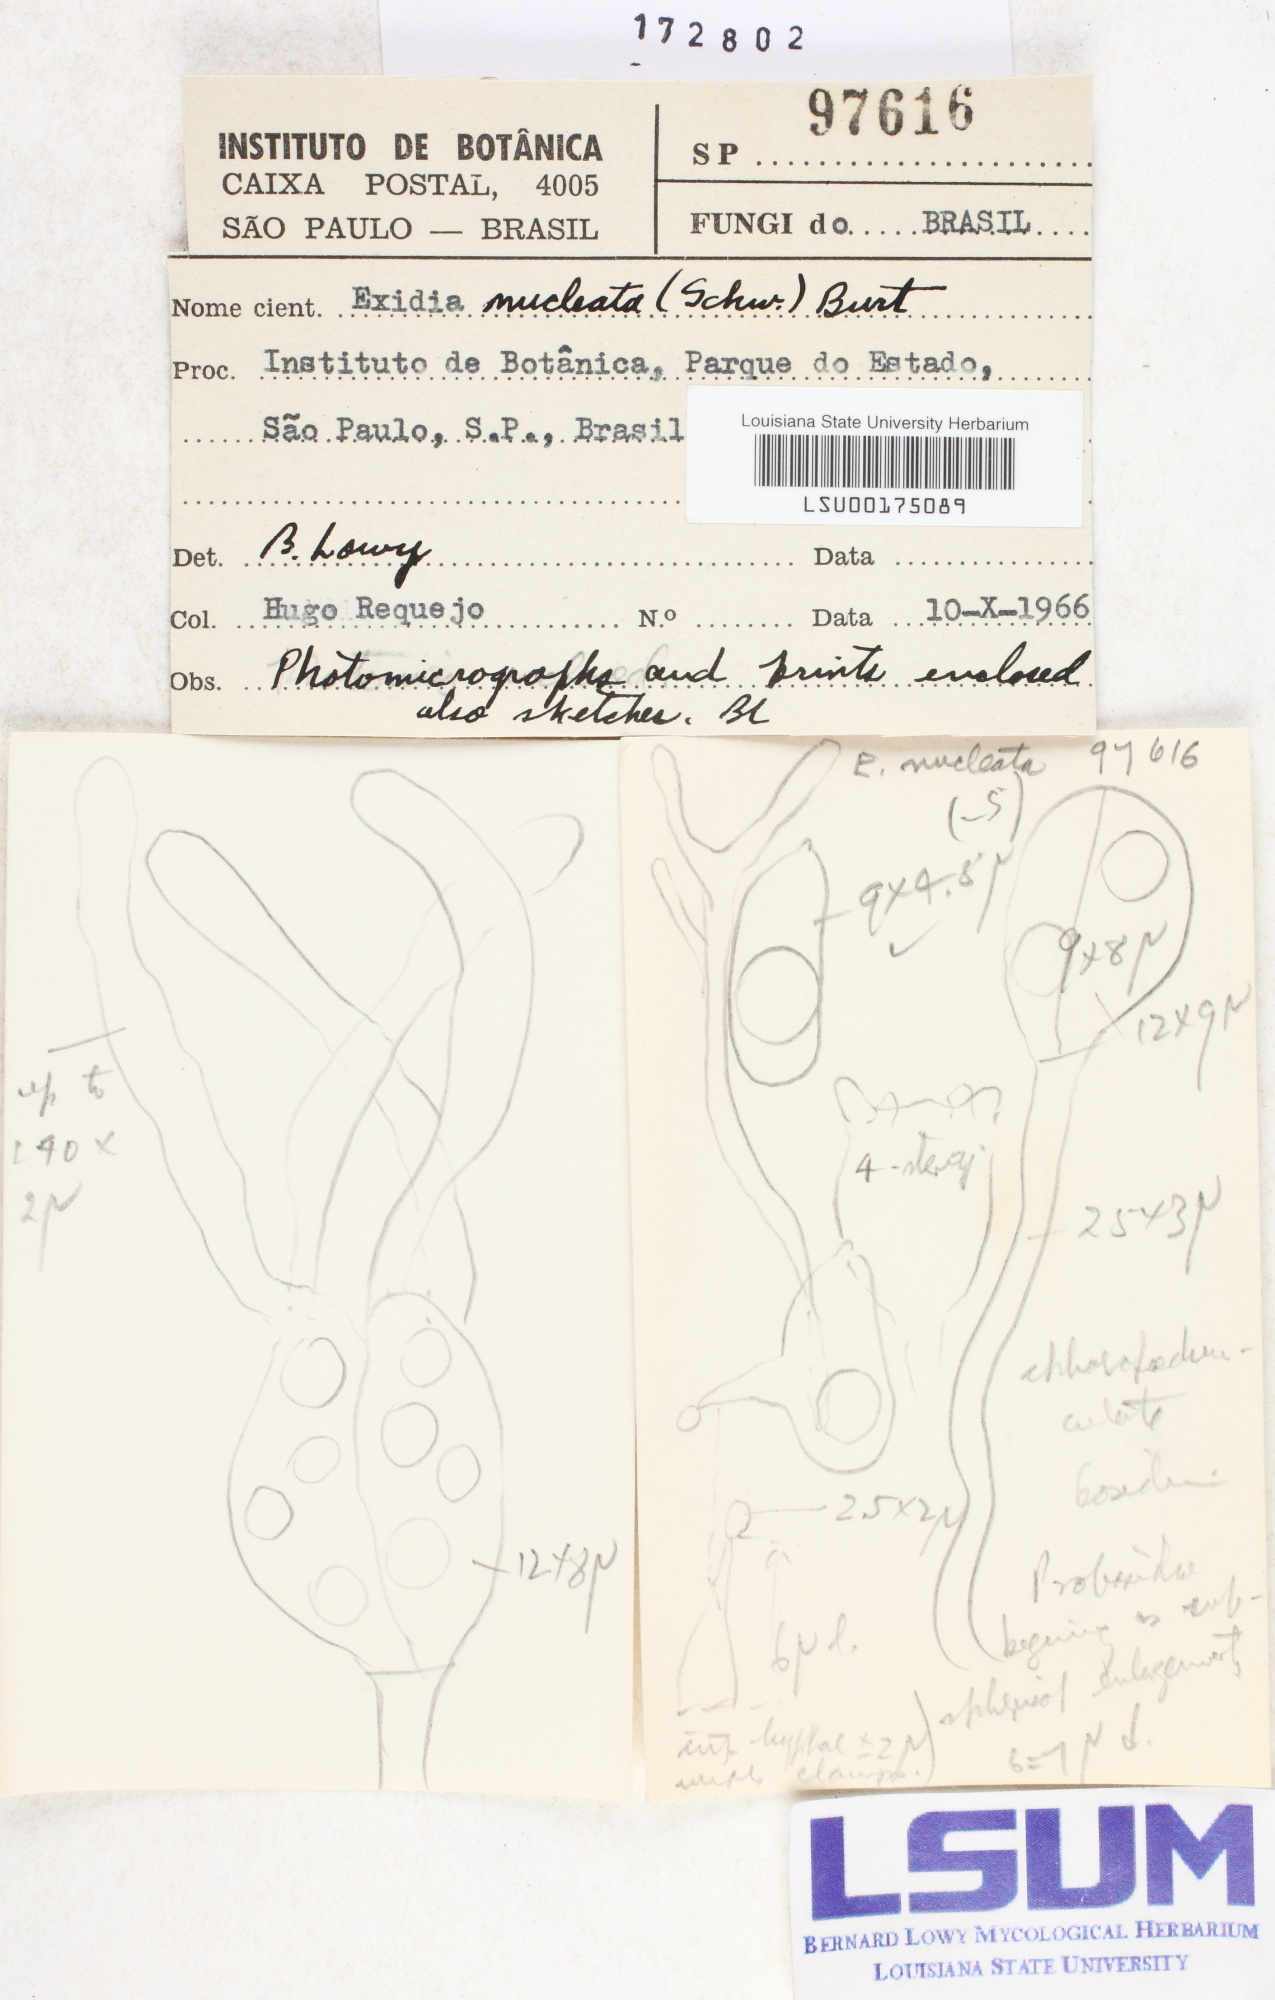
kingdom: Fungi
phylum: Basidiomycota
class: Agaricomycetes
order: Auriculariales
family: Hyaloriaceae
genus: Myxarium
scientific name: Myxarium nucleatum
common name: Crystal brain fungus
